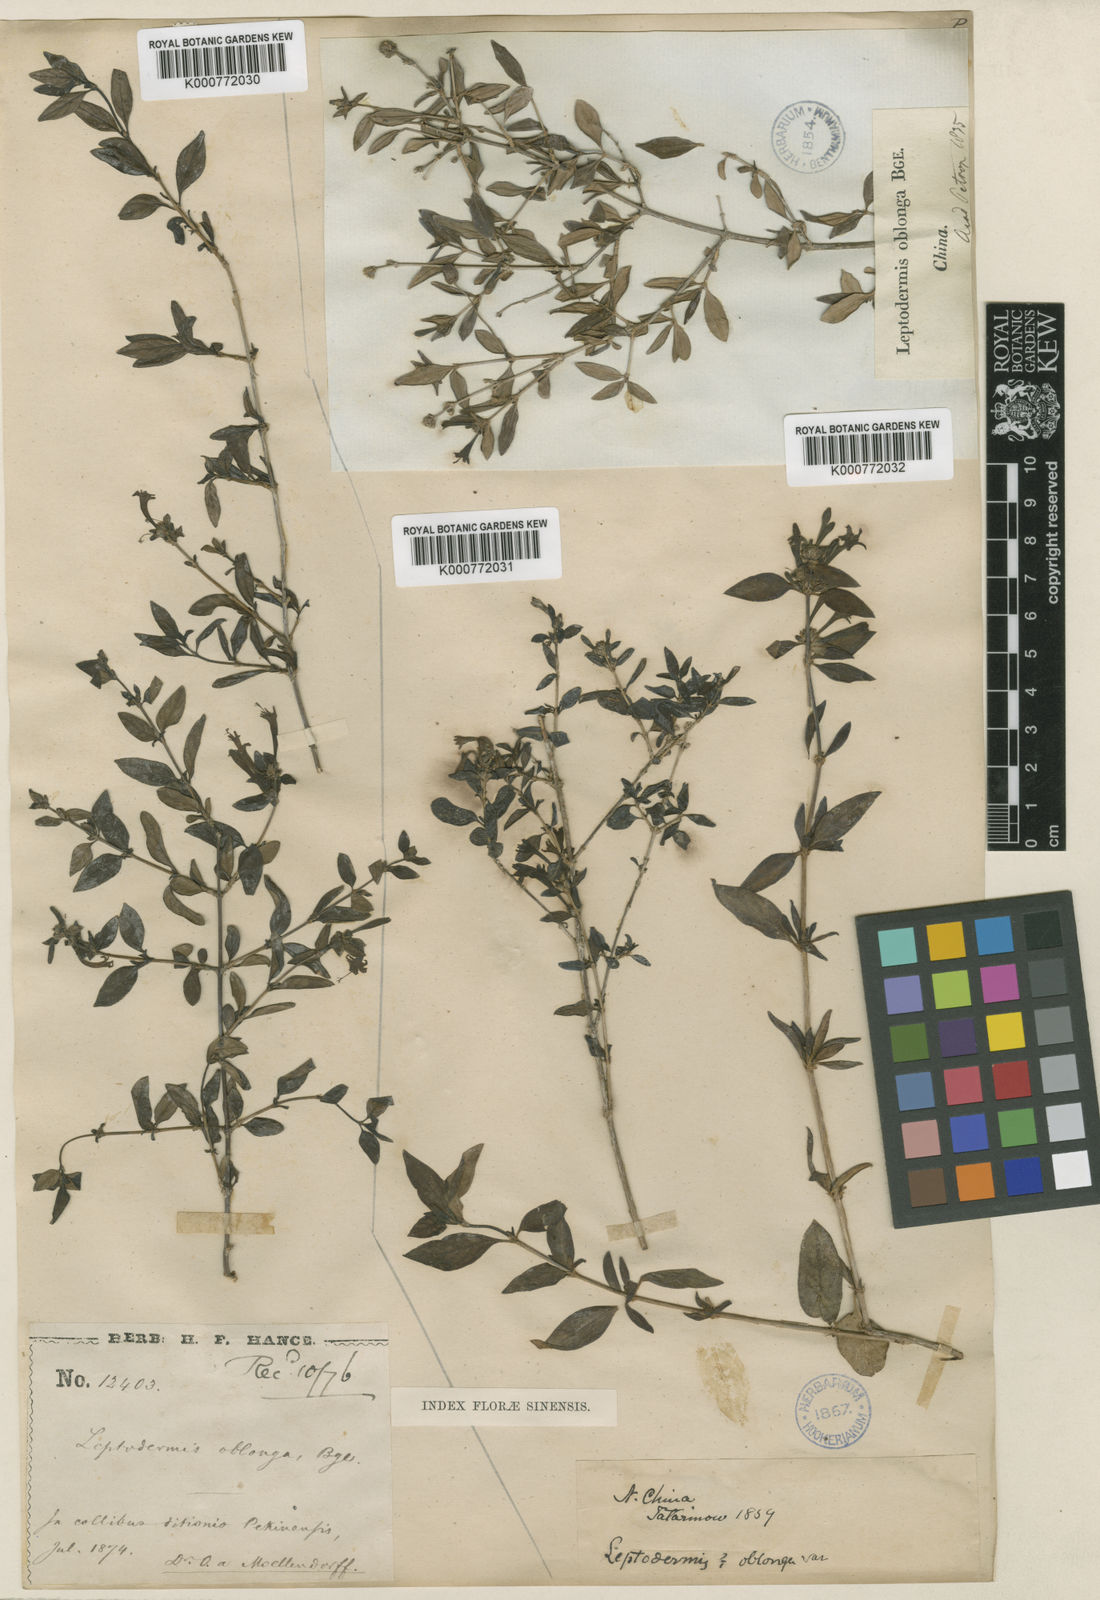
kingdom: Plantae
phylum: Tracheophyta
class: Magnoliopsida
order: Gentianales
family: Rubiaceae
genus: Leptodermis
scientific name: Leptodermis oblonga
